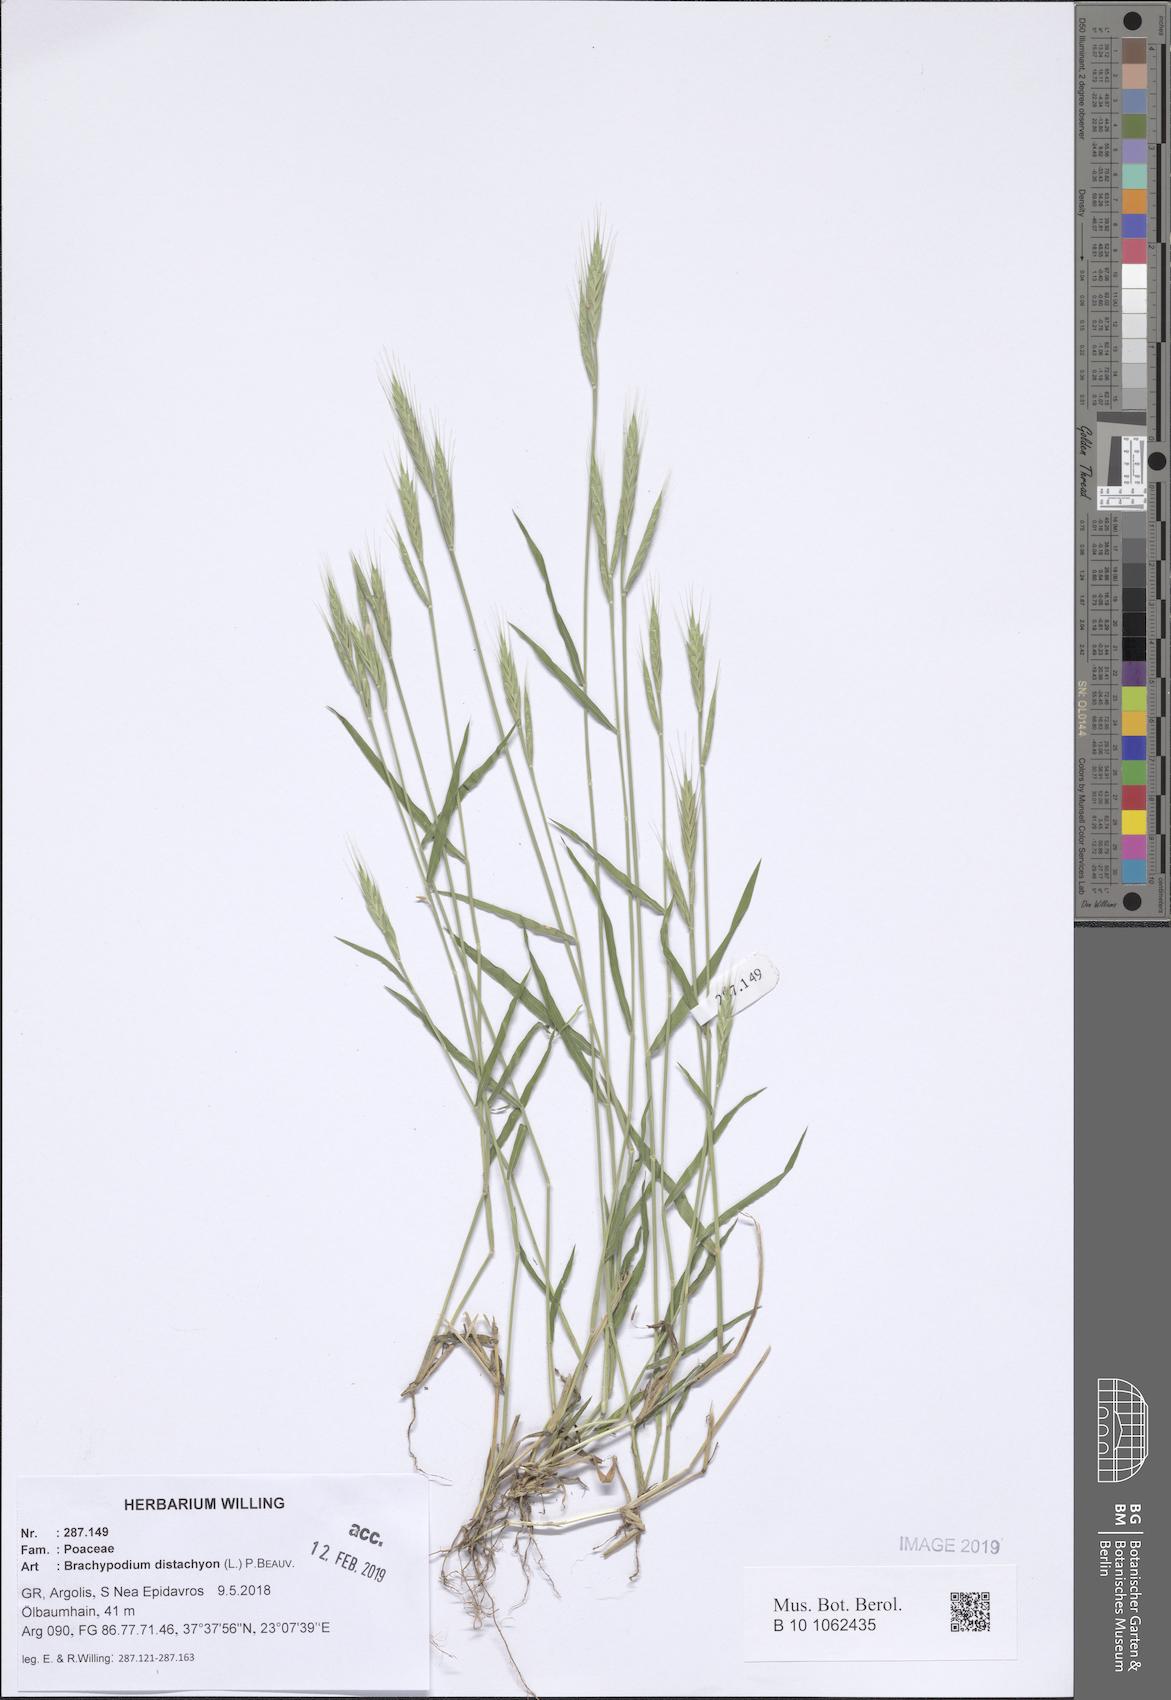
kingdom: Plantae
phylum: Tracheophyta
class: Liliopsida
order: Poales
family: Poaceae
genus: Brachypodium
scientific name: Brachypodium distachyon
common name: Stiff brome
